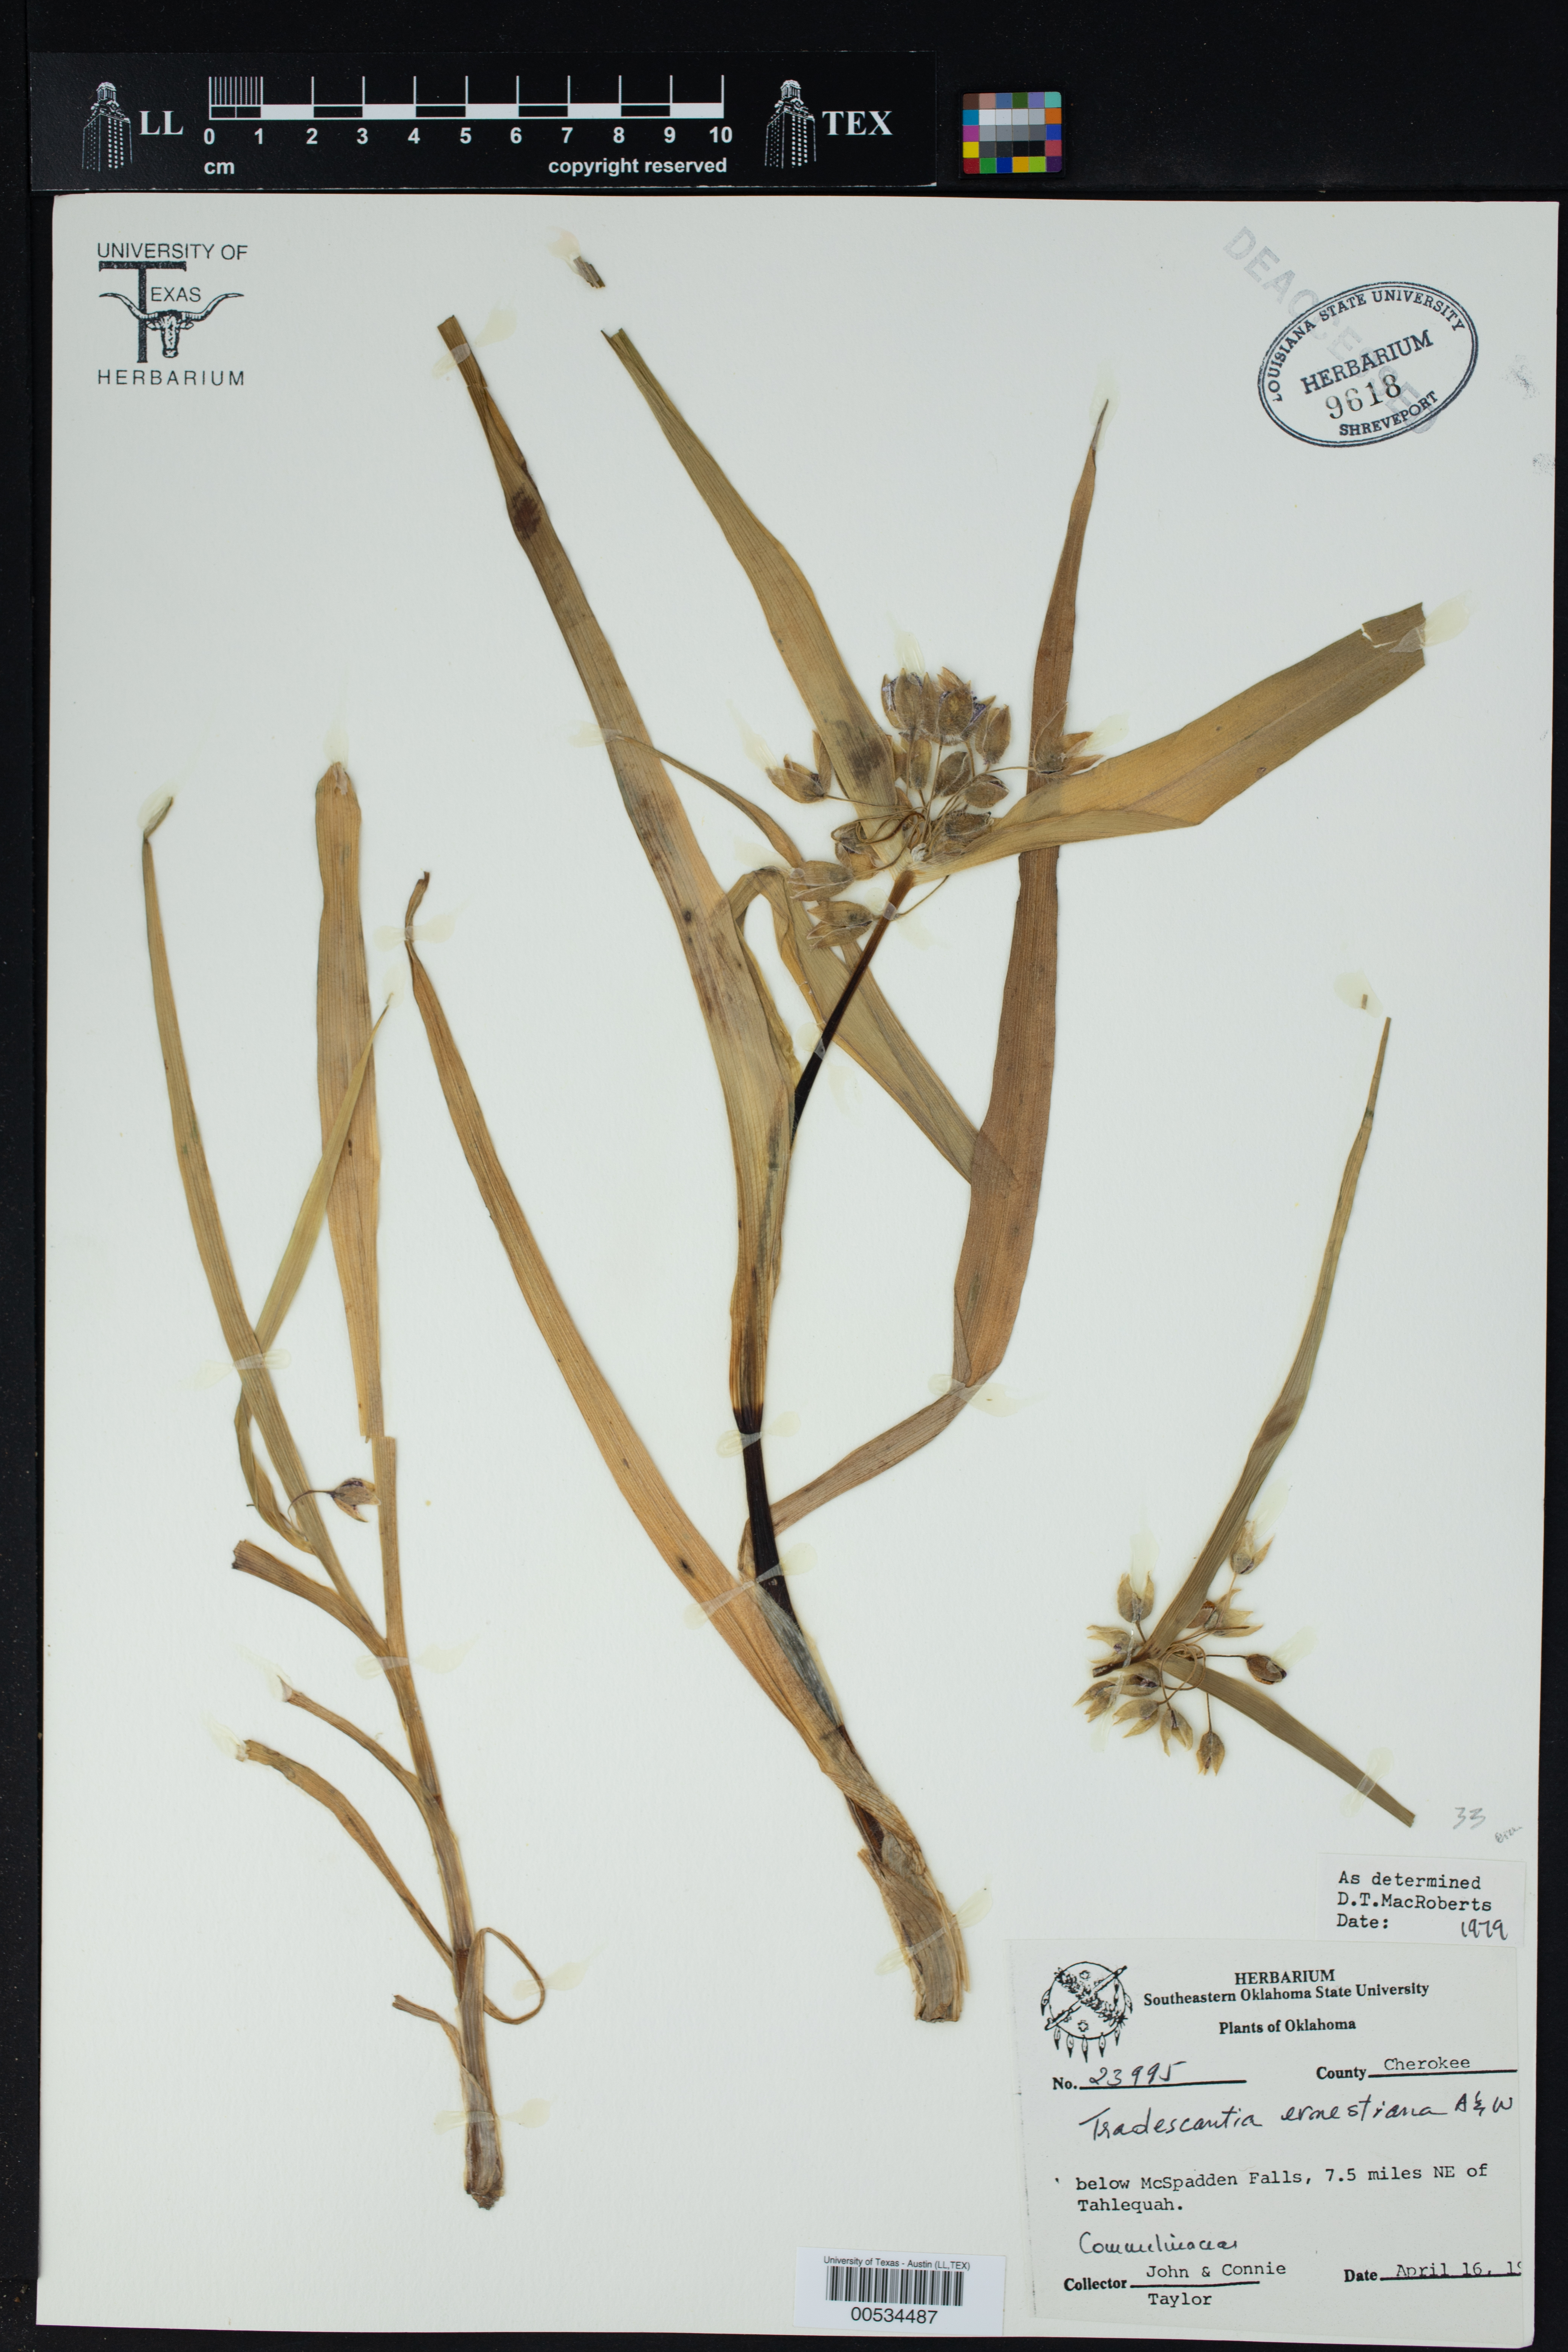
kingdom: Plantae
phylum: Tracheophyta
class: Liliopsida
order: Commelinales
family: Commelinaceae
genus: Tradescantia
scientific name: Tradescantia ernestiana
